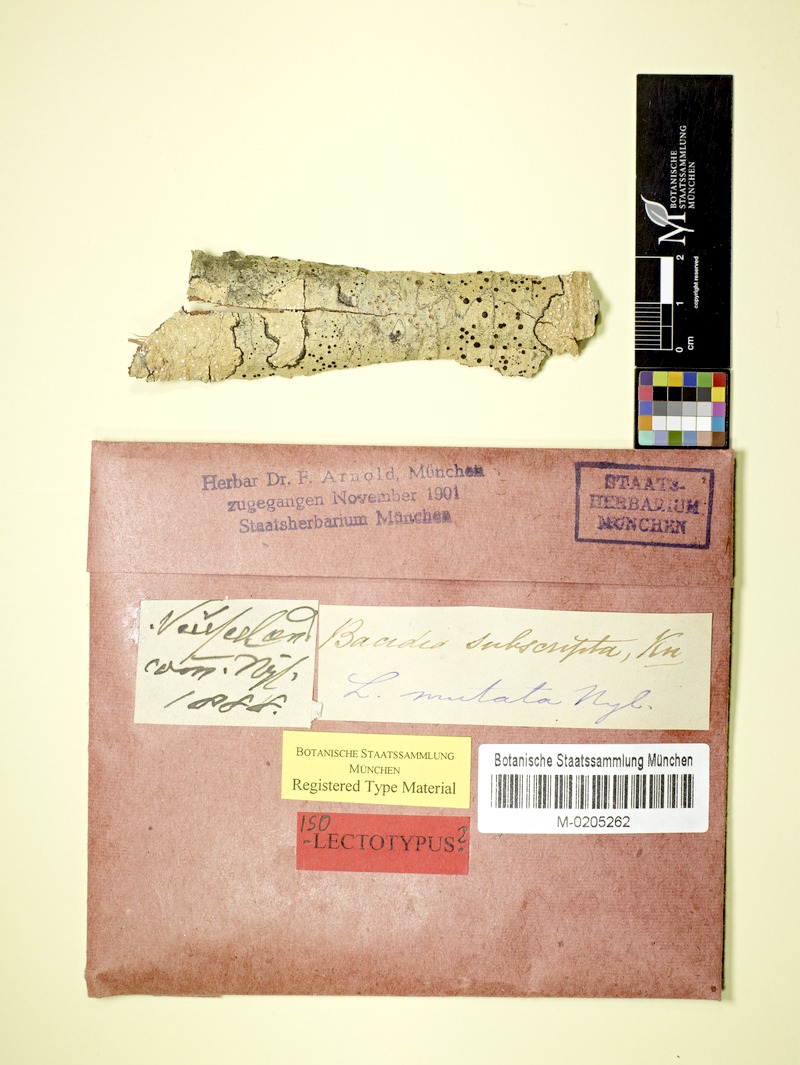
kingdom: Fungi
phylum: Ascomycota
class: Lecanoromycetes
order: Lecanorales
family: Sarrameanaceae
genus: Sarrameana
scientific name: Sarrameana albidoplumbea
